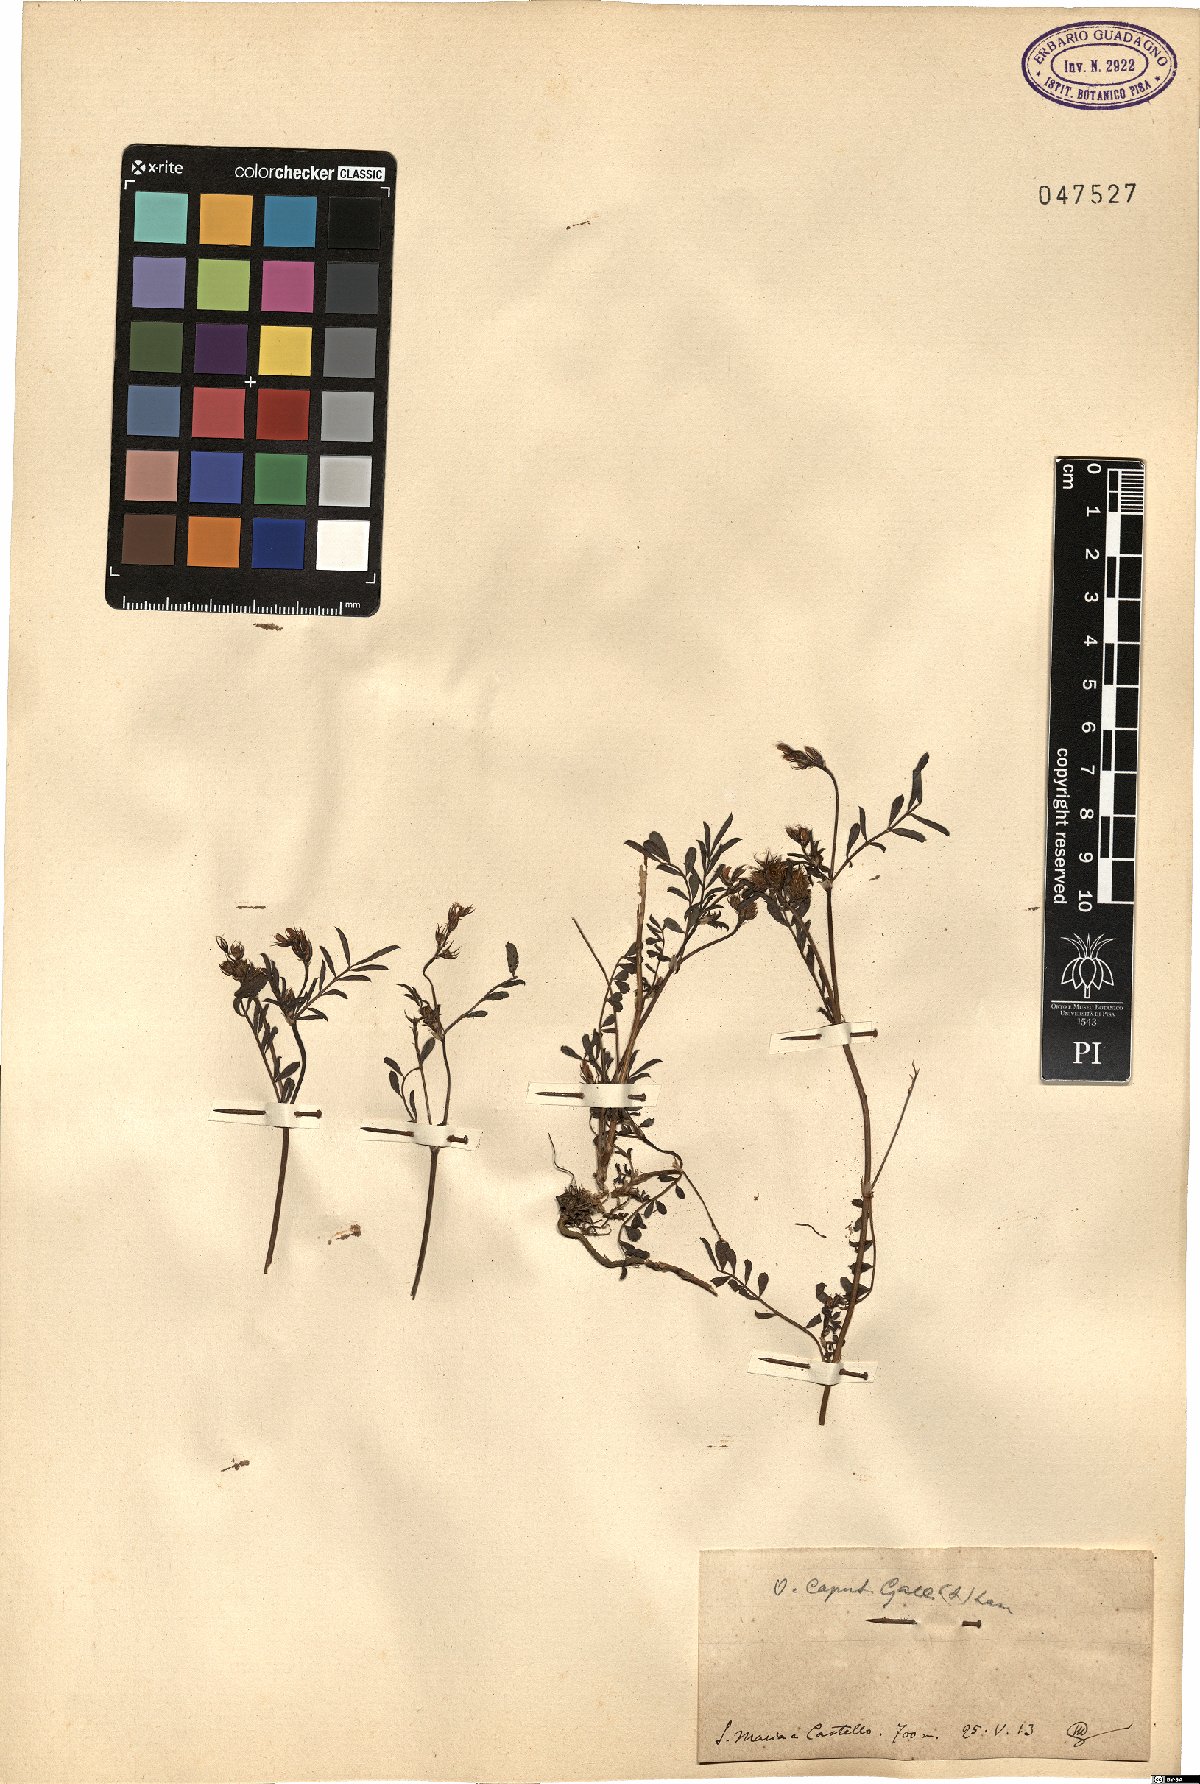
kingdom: Plantae
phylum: Tracheophyta
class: Magnoliopsida
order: Fabales
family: Fabaceae
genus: Onobrychis
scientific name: Onobrychis caput-galli
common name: Cockscomb sainfoin
